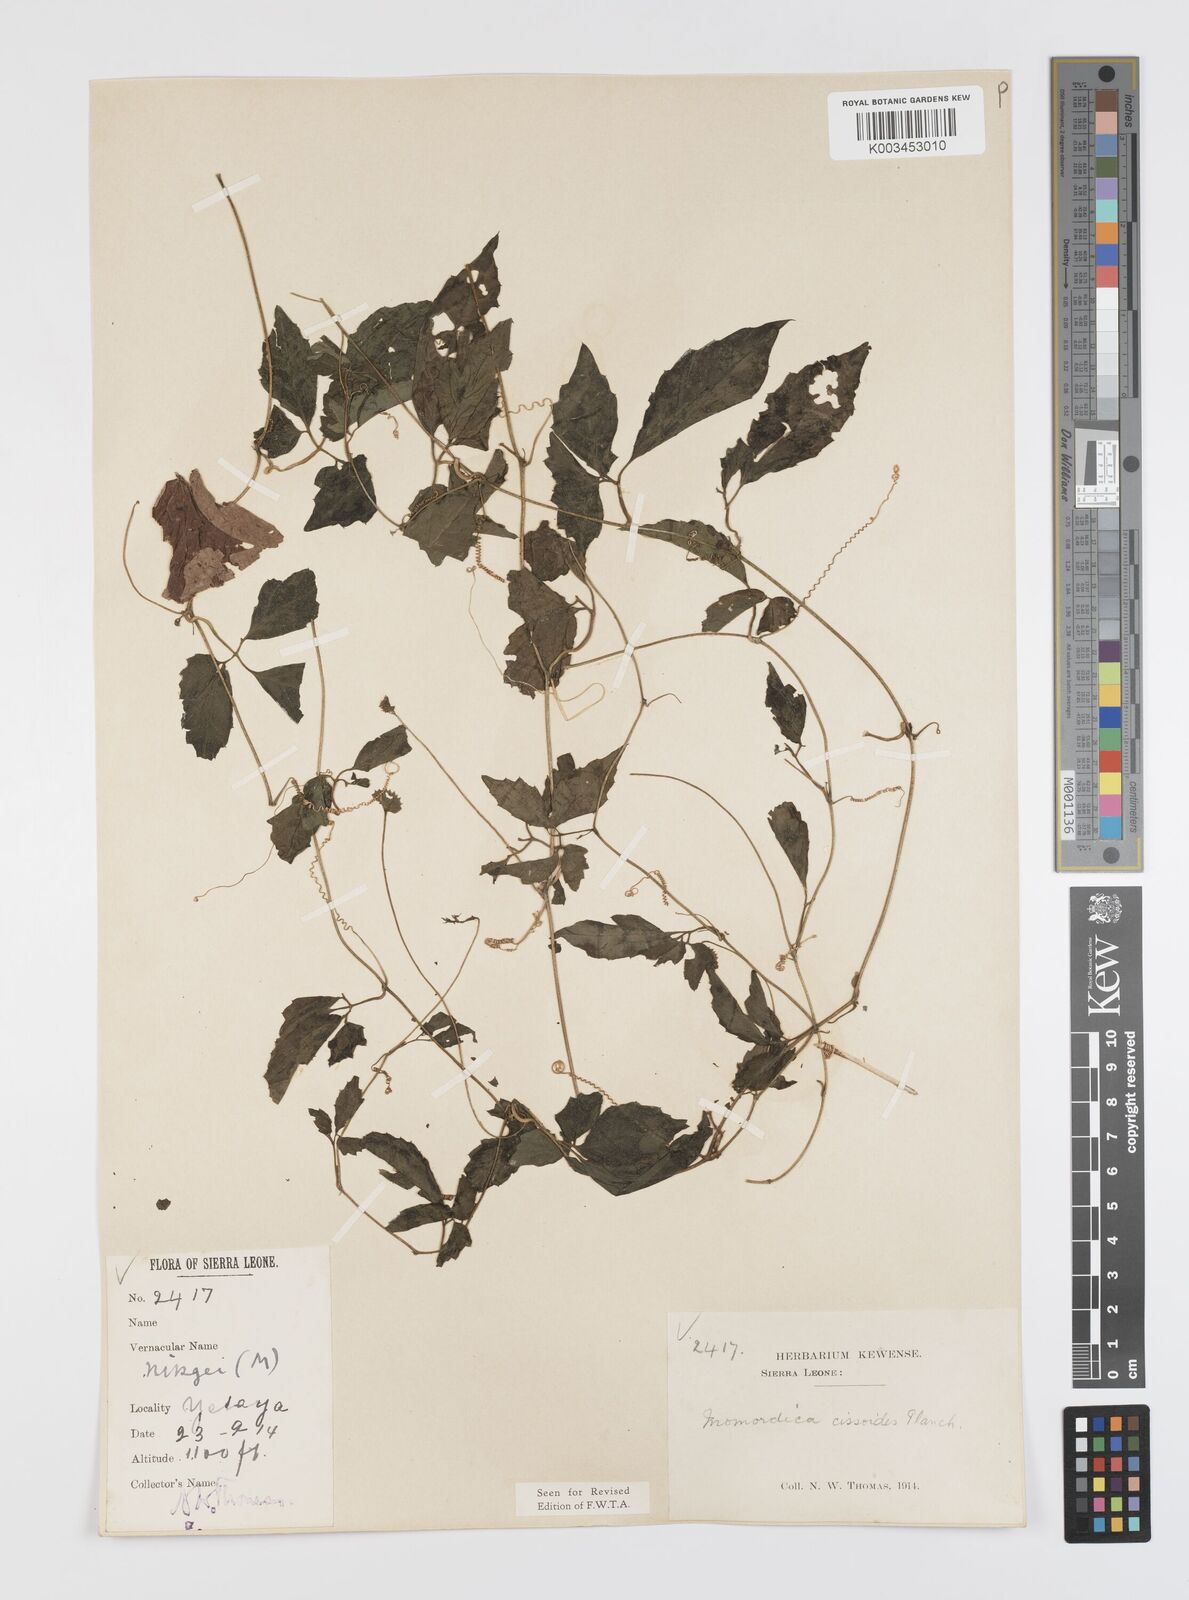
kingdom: Plantae
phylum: Tracheophyta
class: Magnoliopsida
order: Cucurbitales
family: Cucurbitaceae
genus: Momordica
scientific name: Momordica cissoides
